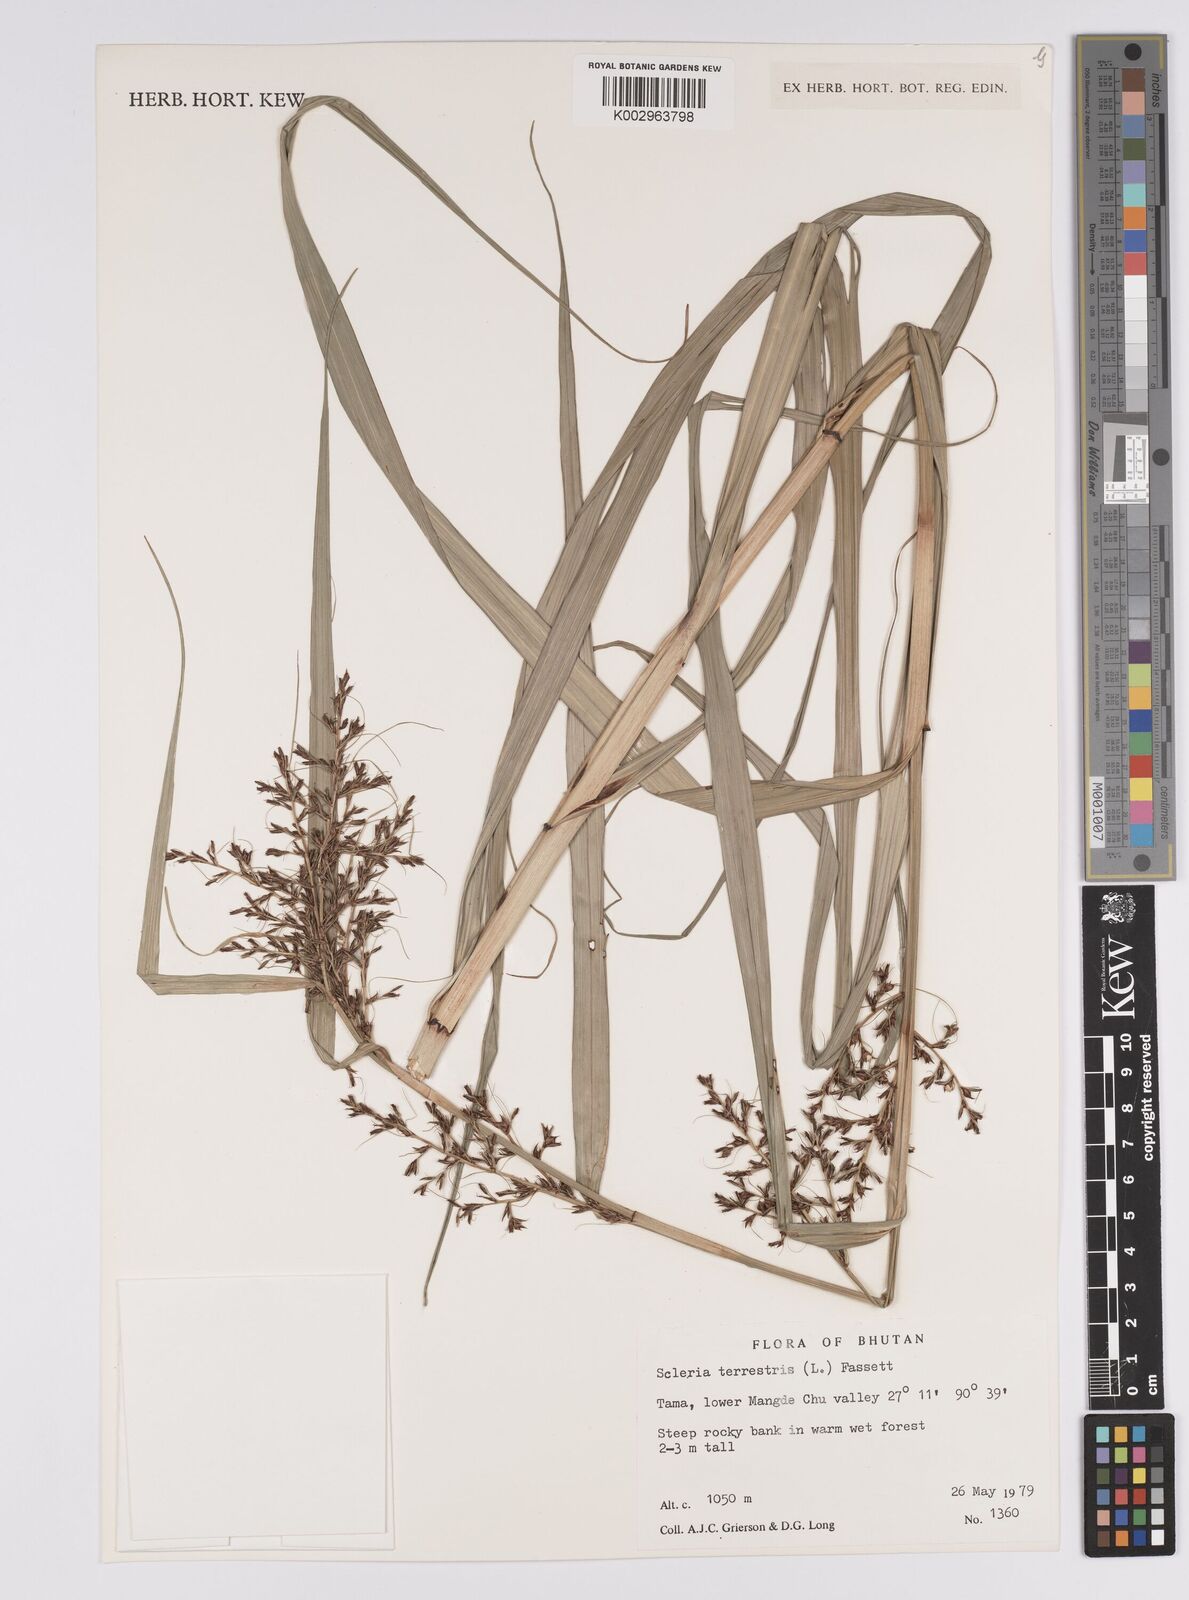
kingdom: Plantae
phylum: Tracheophyta
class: Liliopsida
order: Poales
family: Cyperaceae
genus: Scleria
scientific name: Scleria terrestris
